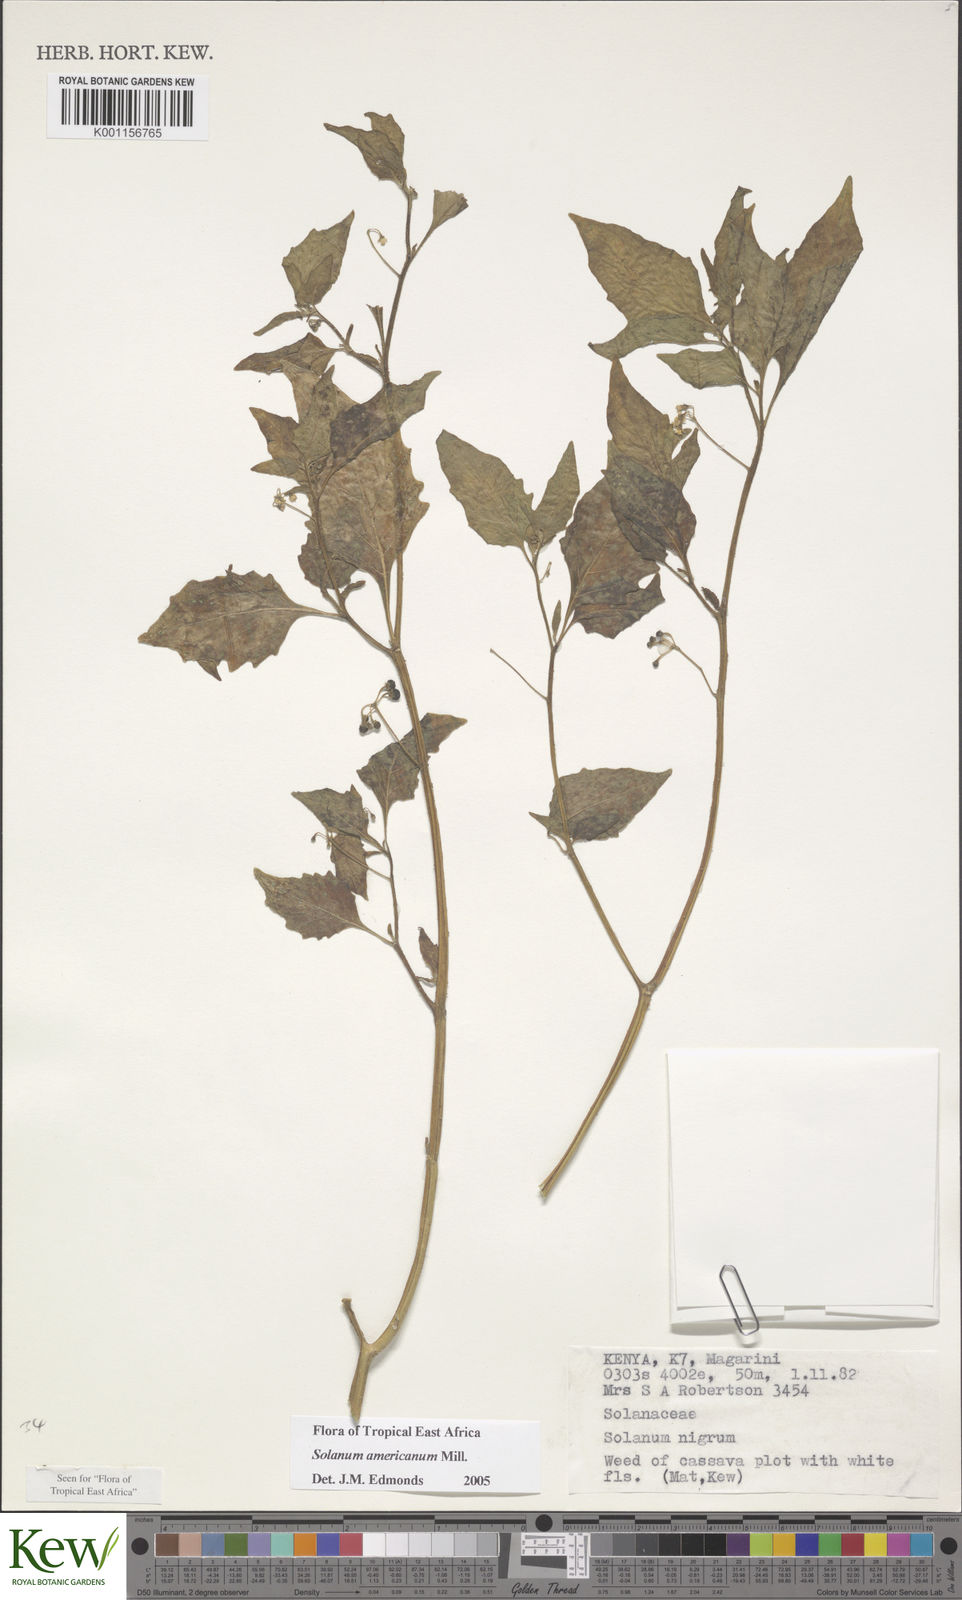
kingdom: Plantae
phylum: Tracheophyta
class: Magnoliopsida
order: Solanales
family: Solanaceae
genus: Solanum
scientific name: Solanum americanum
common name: American black nightshade
